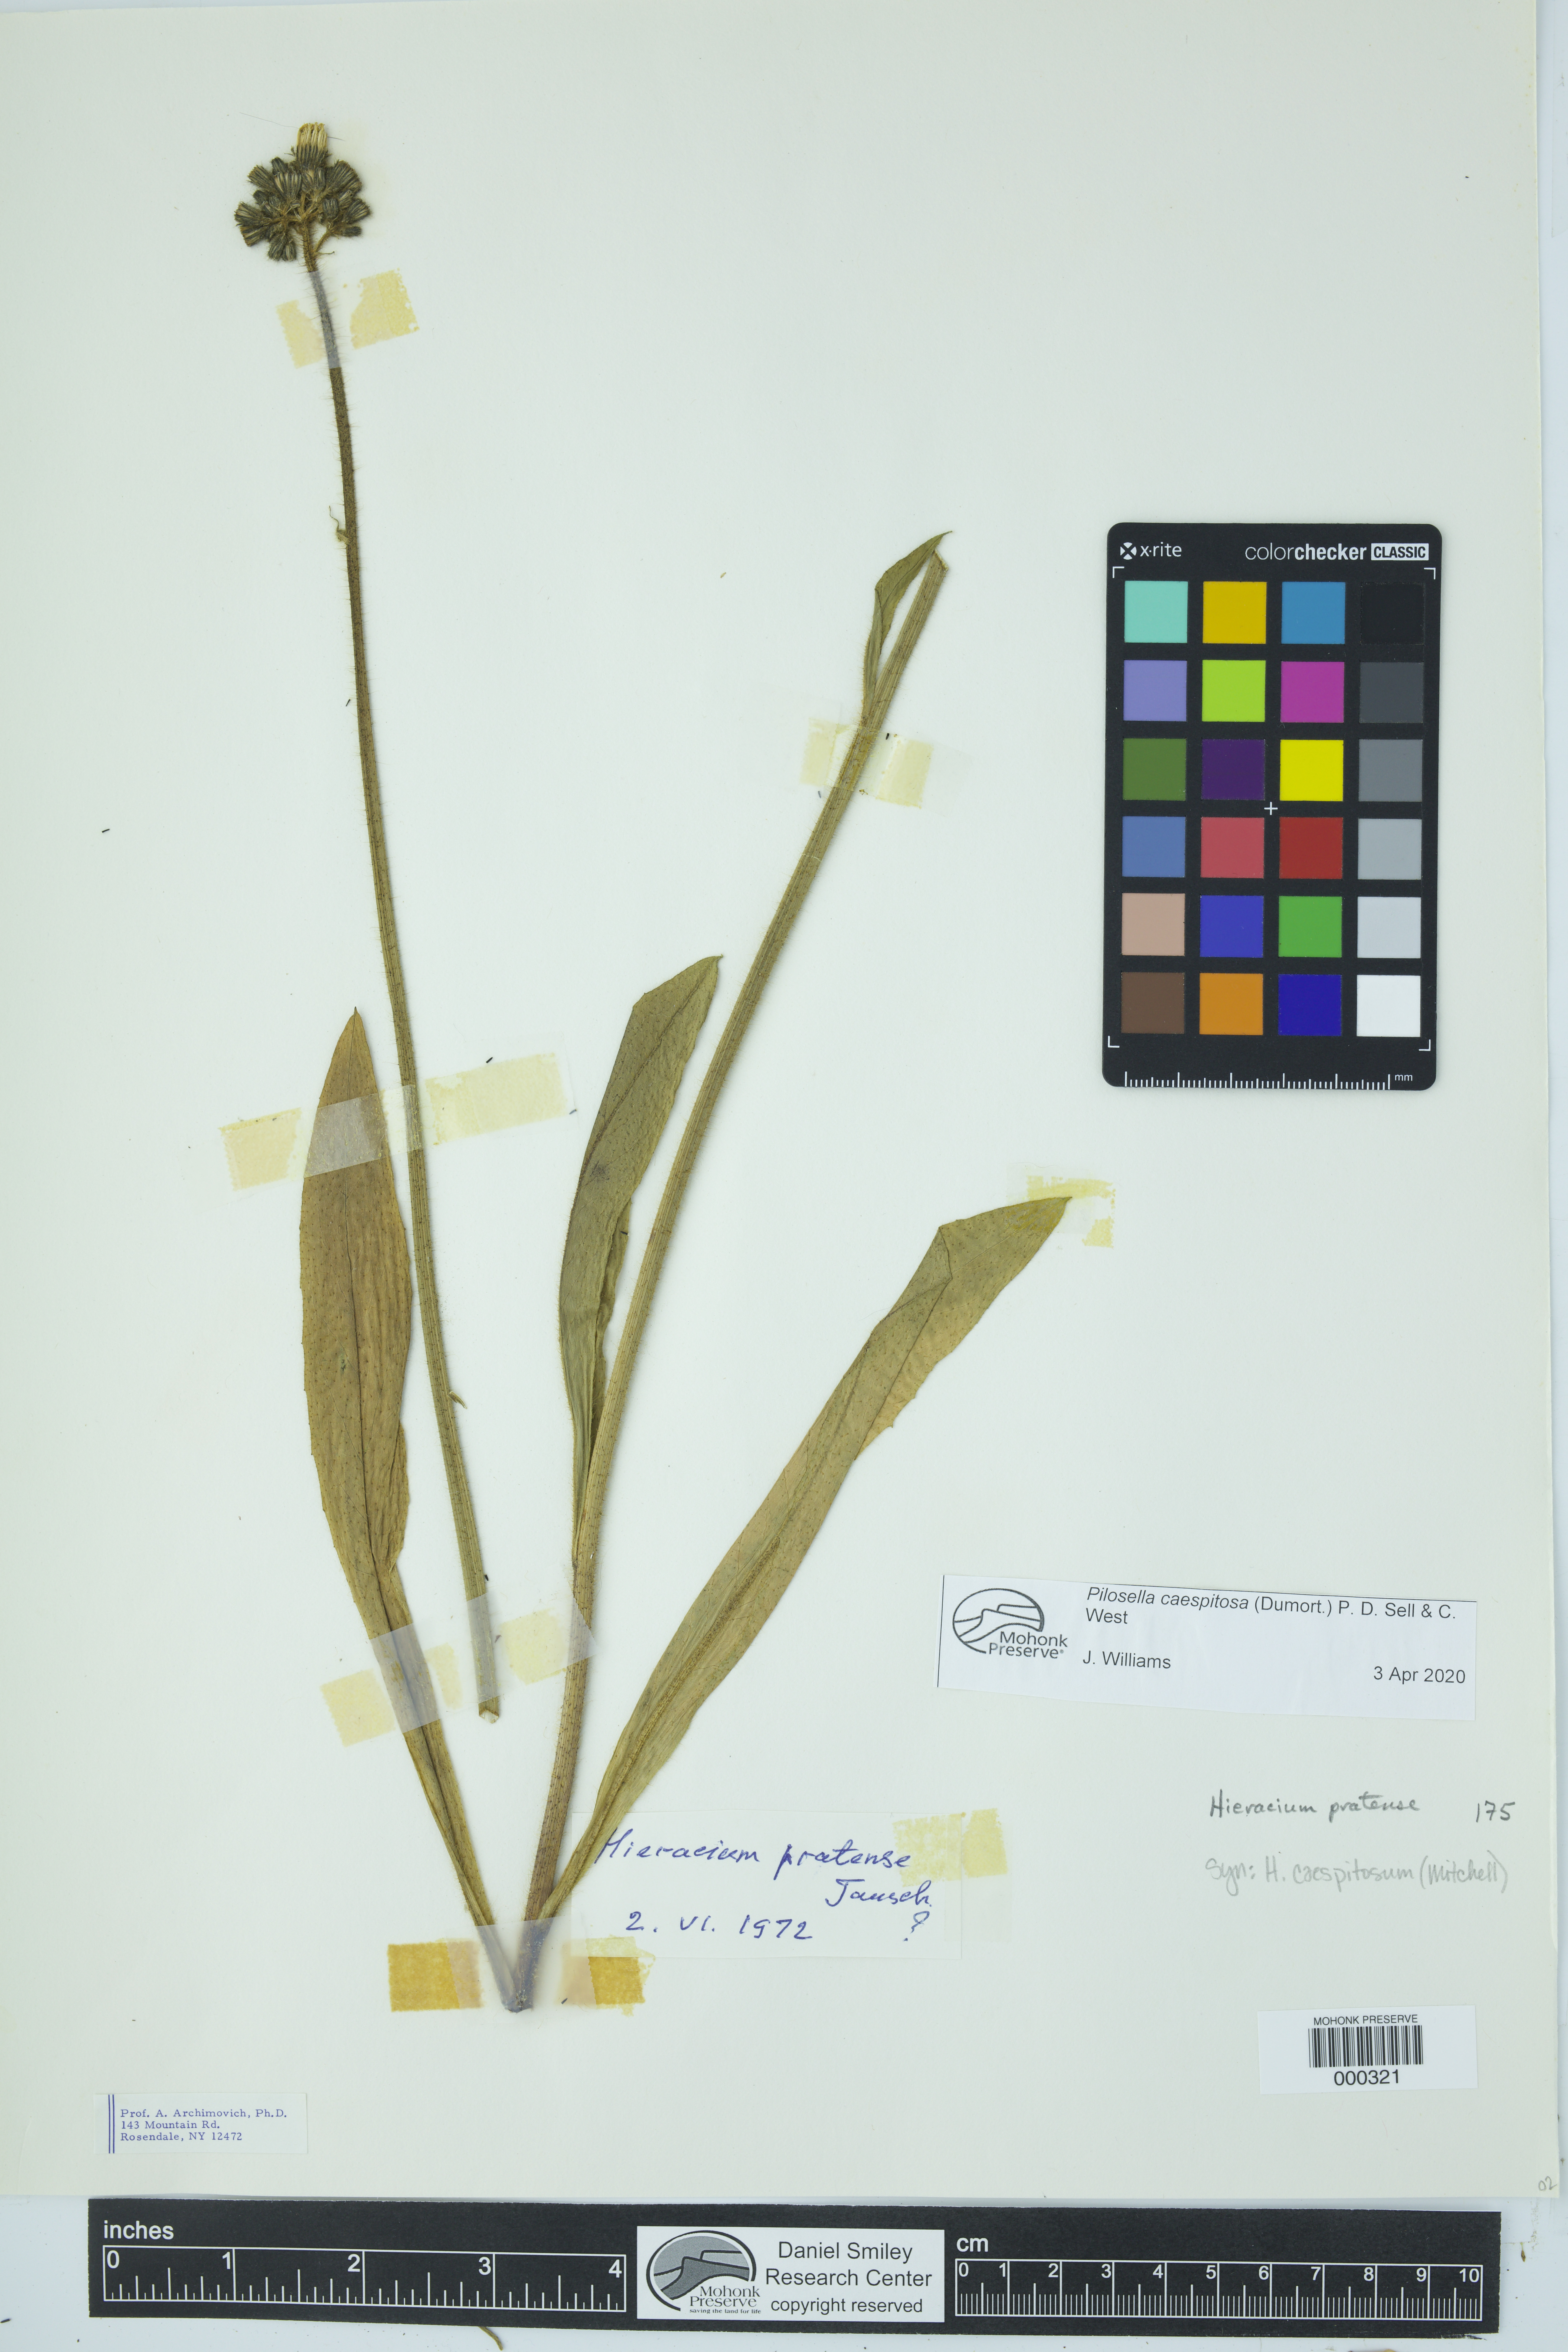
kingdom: Plantae
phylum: Tracheophyta
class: Magnoliopsida
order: Asterales
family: Asteraceae
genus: Pilosella
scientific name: Pilosella caespitosa
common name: Yellow fox-and-cubs
